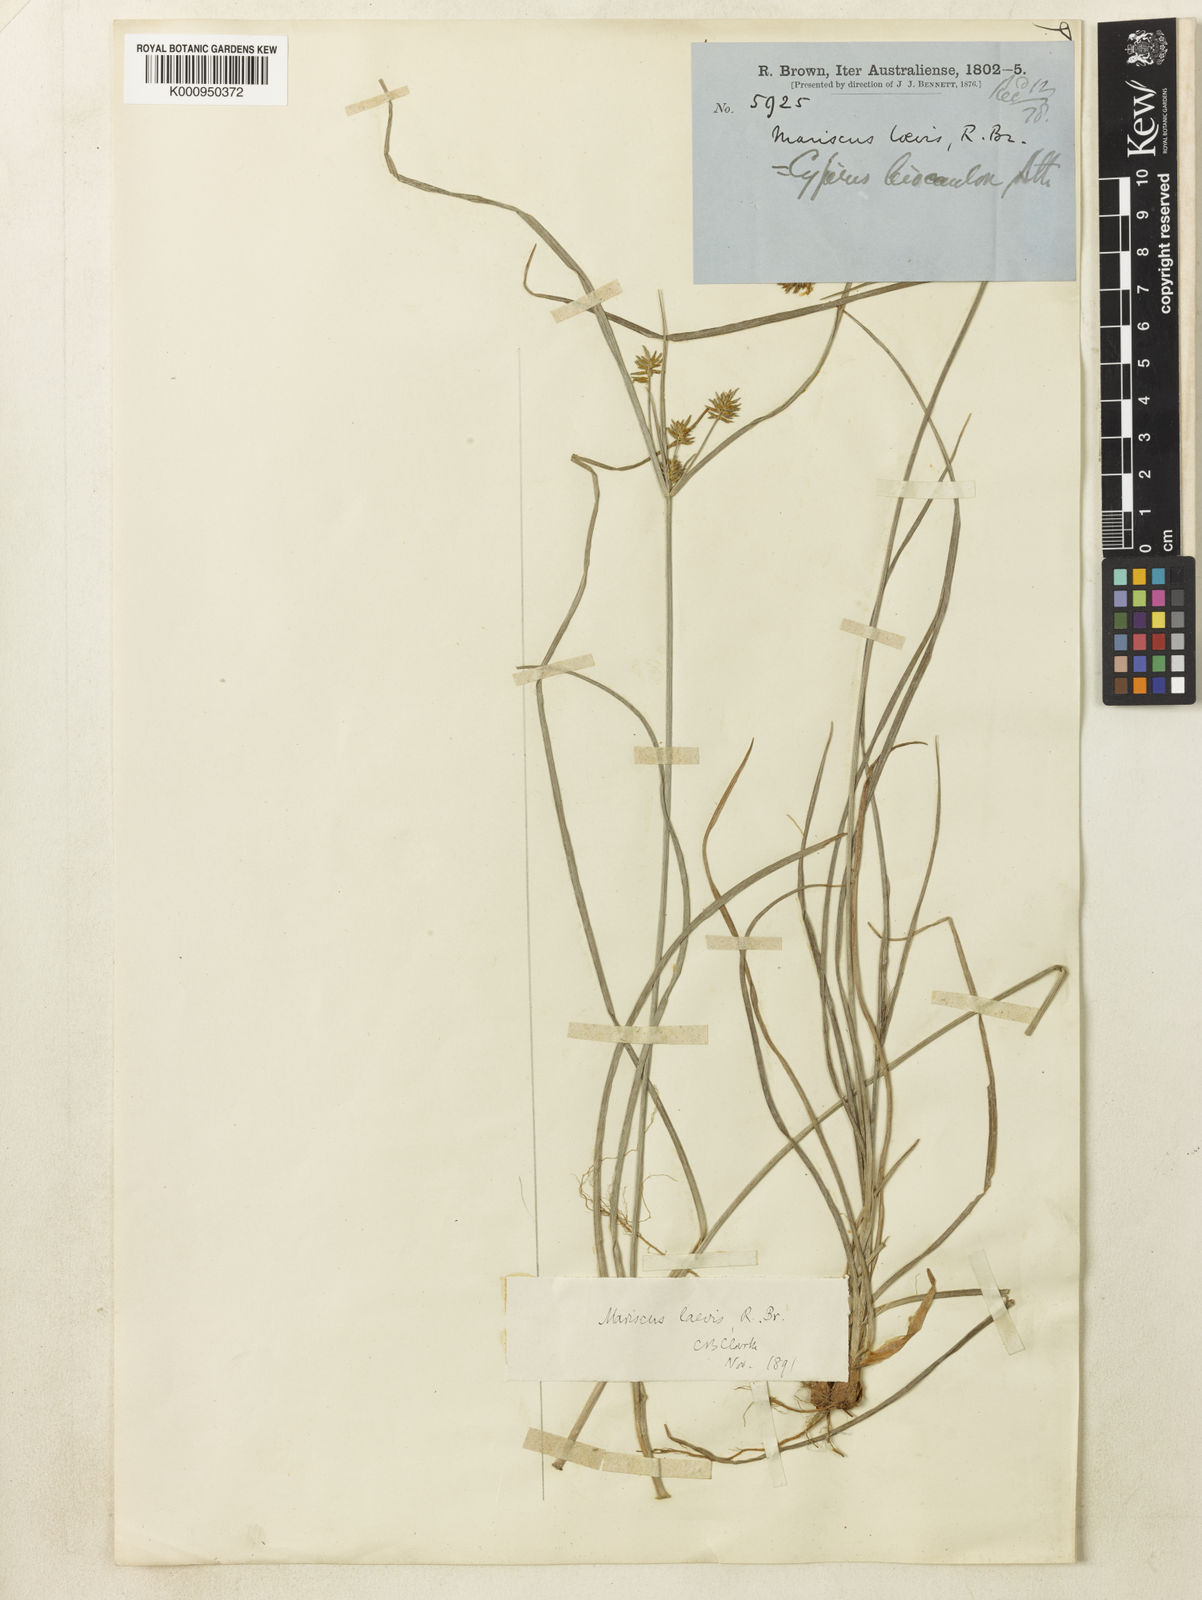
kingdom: Plantae
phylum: Tracheophyta
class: Liliopsida
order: Poales
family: Cyperaceae
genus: Cyperus
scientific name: Cyperus leiocaulon
